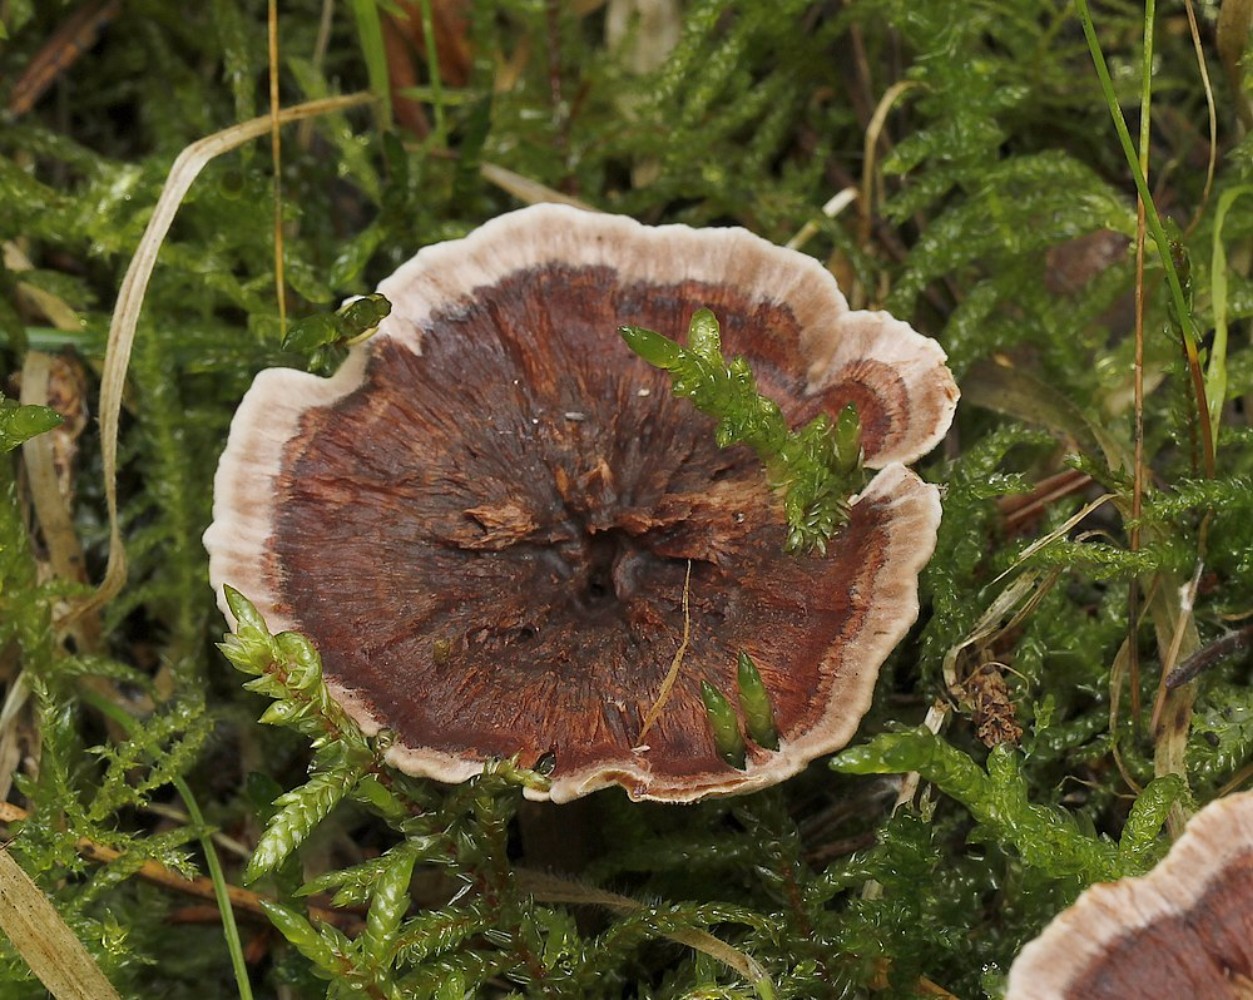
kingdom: Fungi
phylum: Basidiomycota
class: Agaricomycetes
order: Thelephorales
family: Bankeraceae
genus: Hydnellum
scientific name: Hydnellum concrescens
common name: bæltet korkpigsvamp
